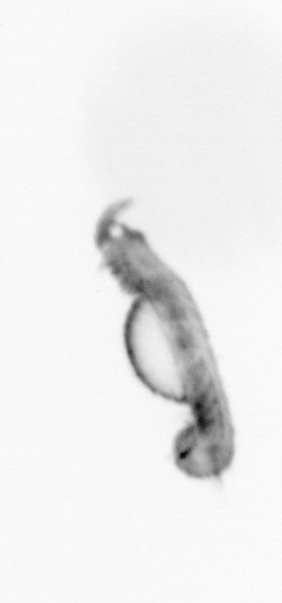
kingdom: Animalia
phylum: Annelida
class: Polychaeta
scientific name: Polychaeta
